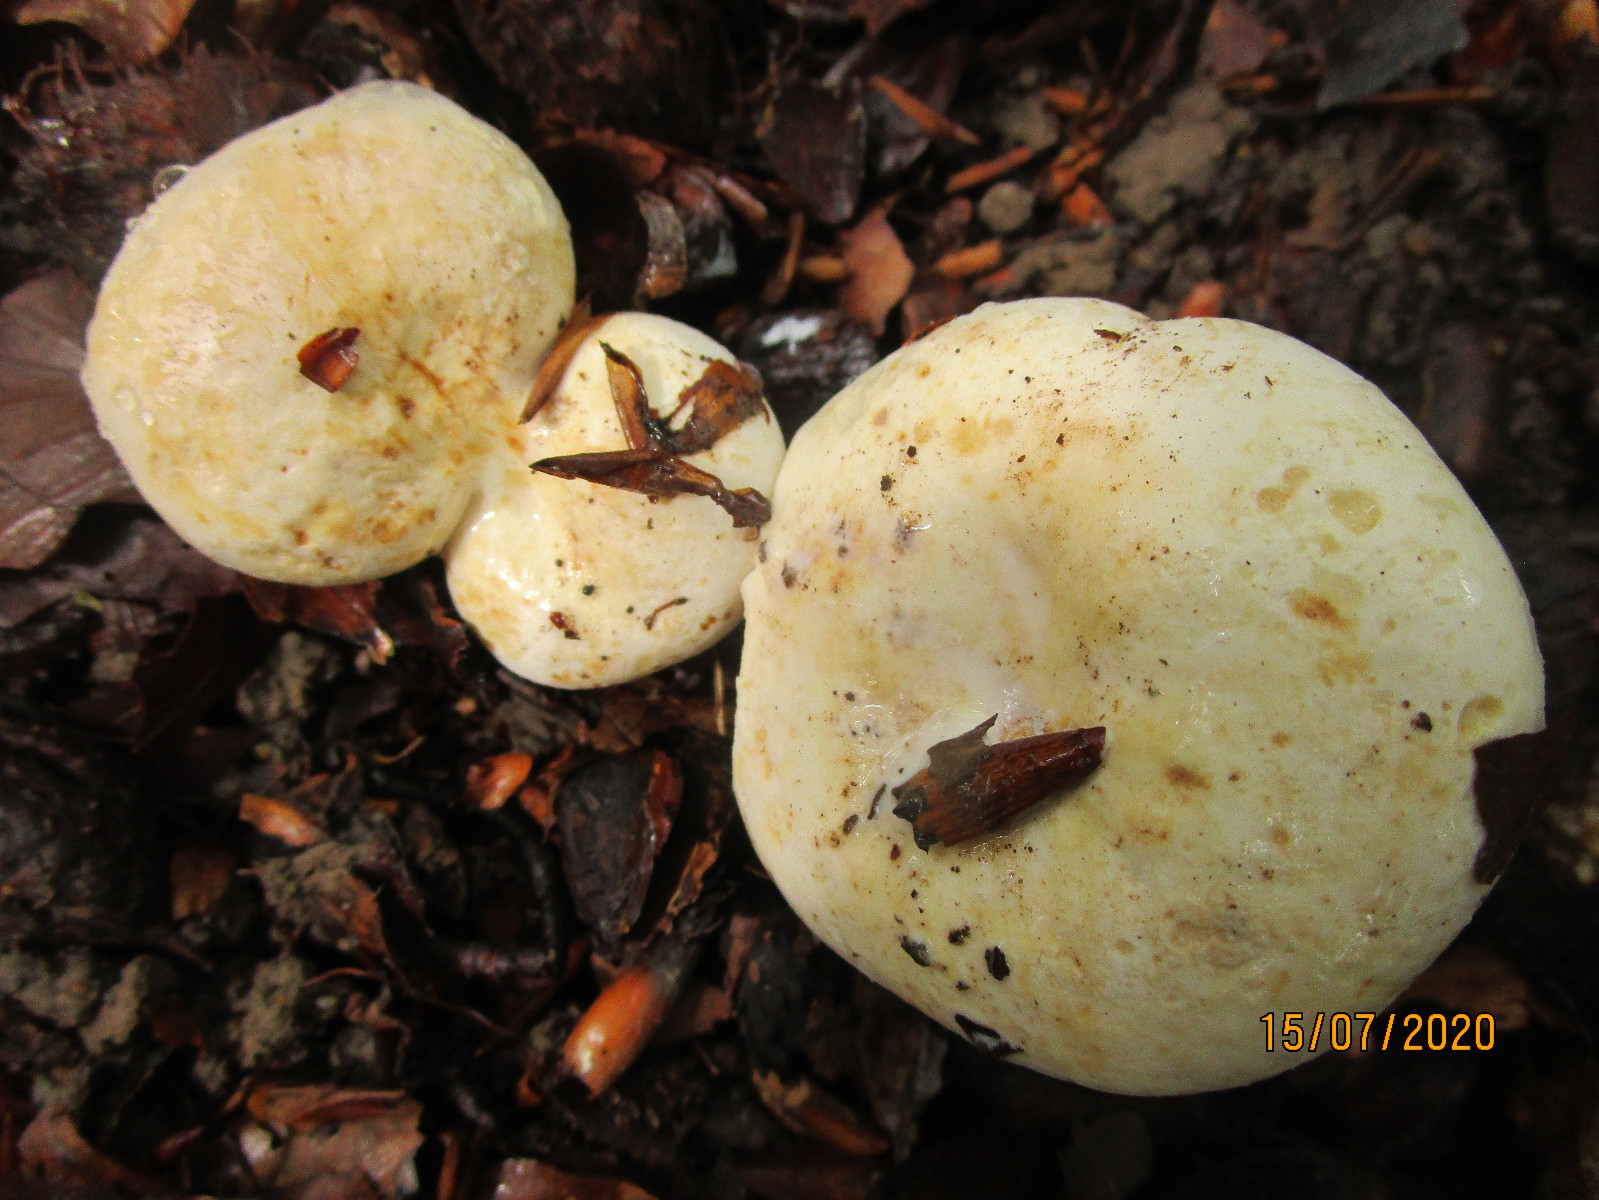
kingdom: Fungi
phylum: Basidiomycota
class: Agaricomycetes
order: Russulales
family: Russulaceae
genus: Lactifluus
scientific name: Lactifluus piperatus
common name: peber-mælkehat
